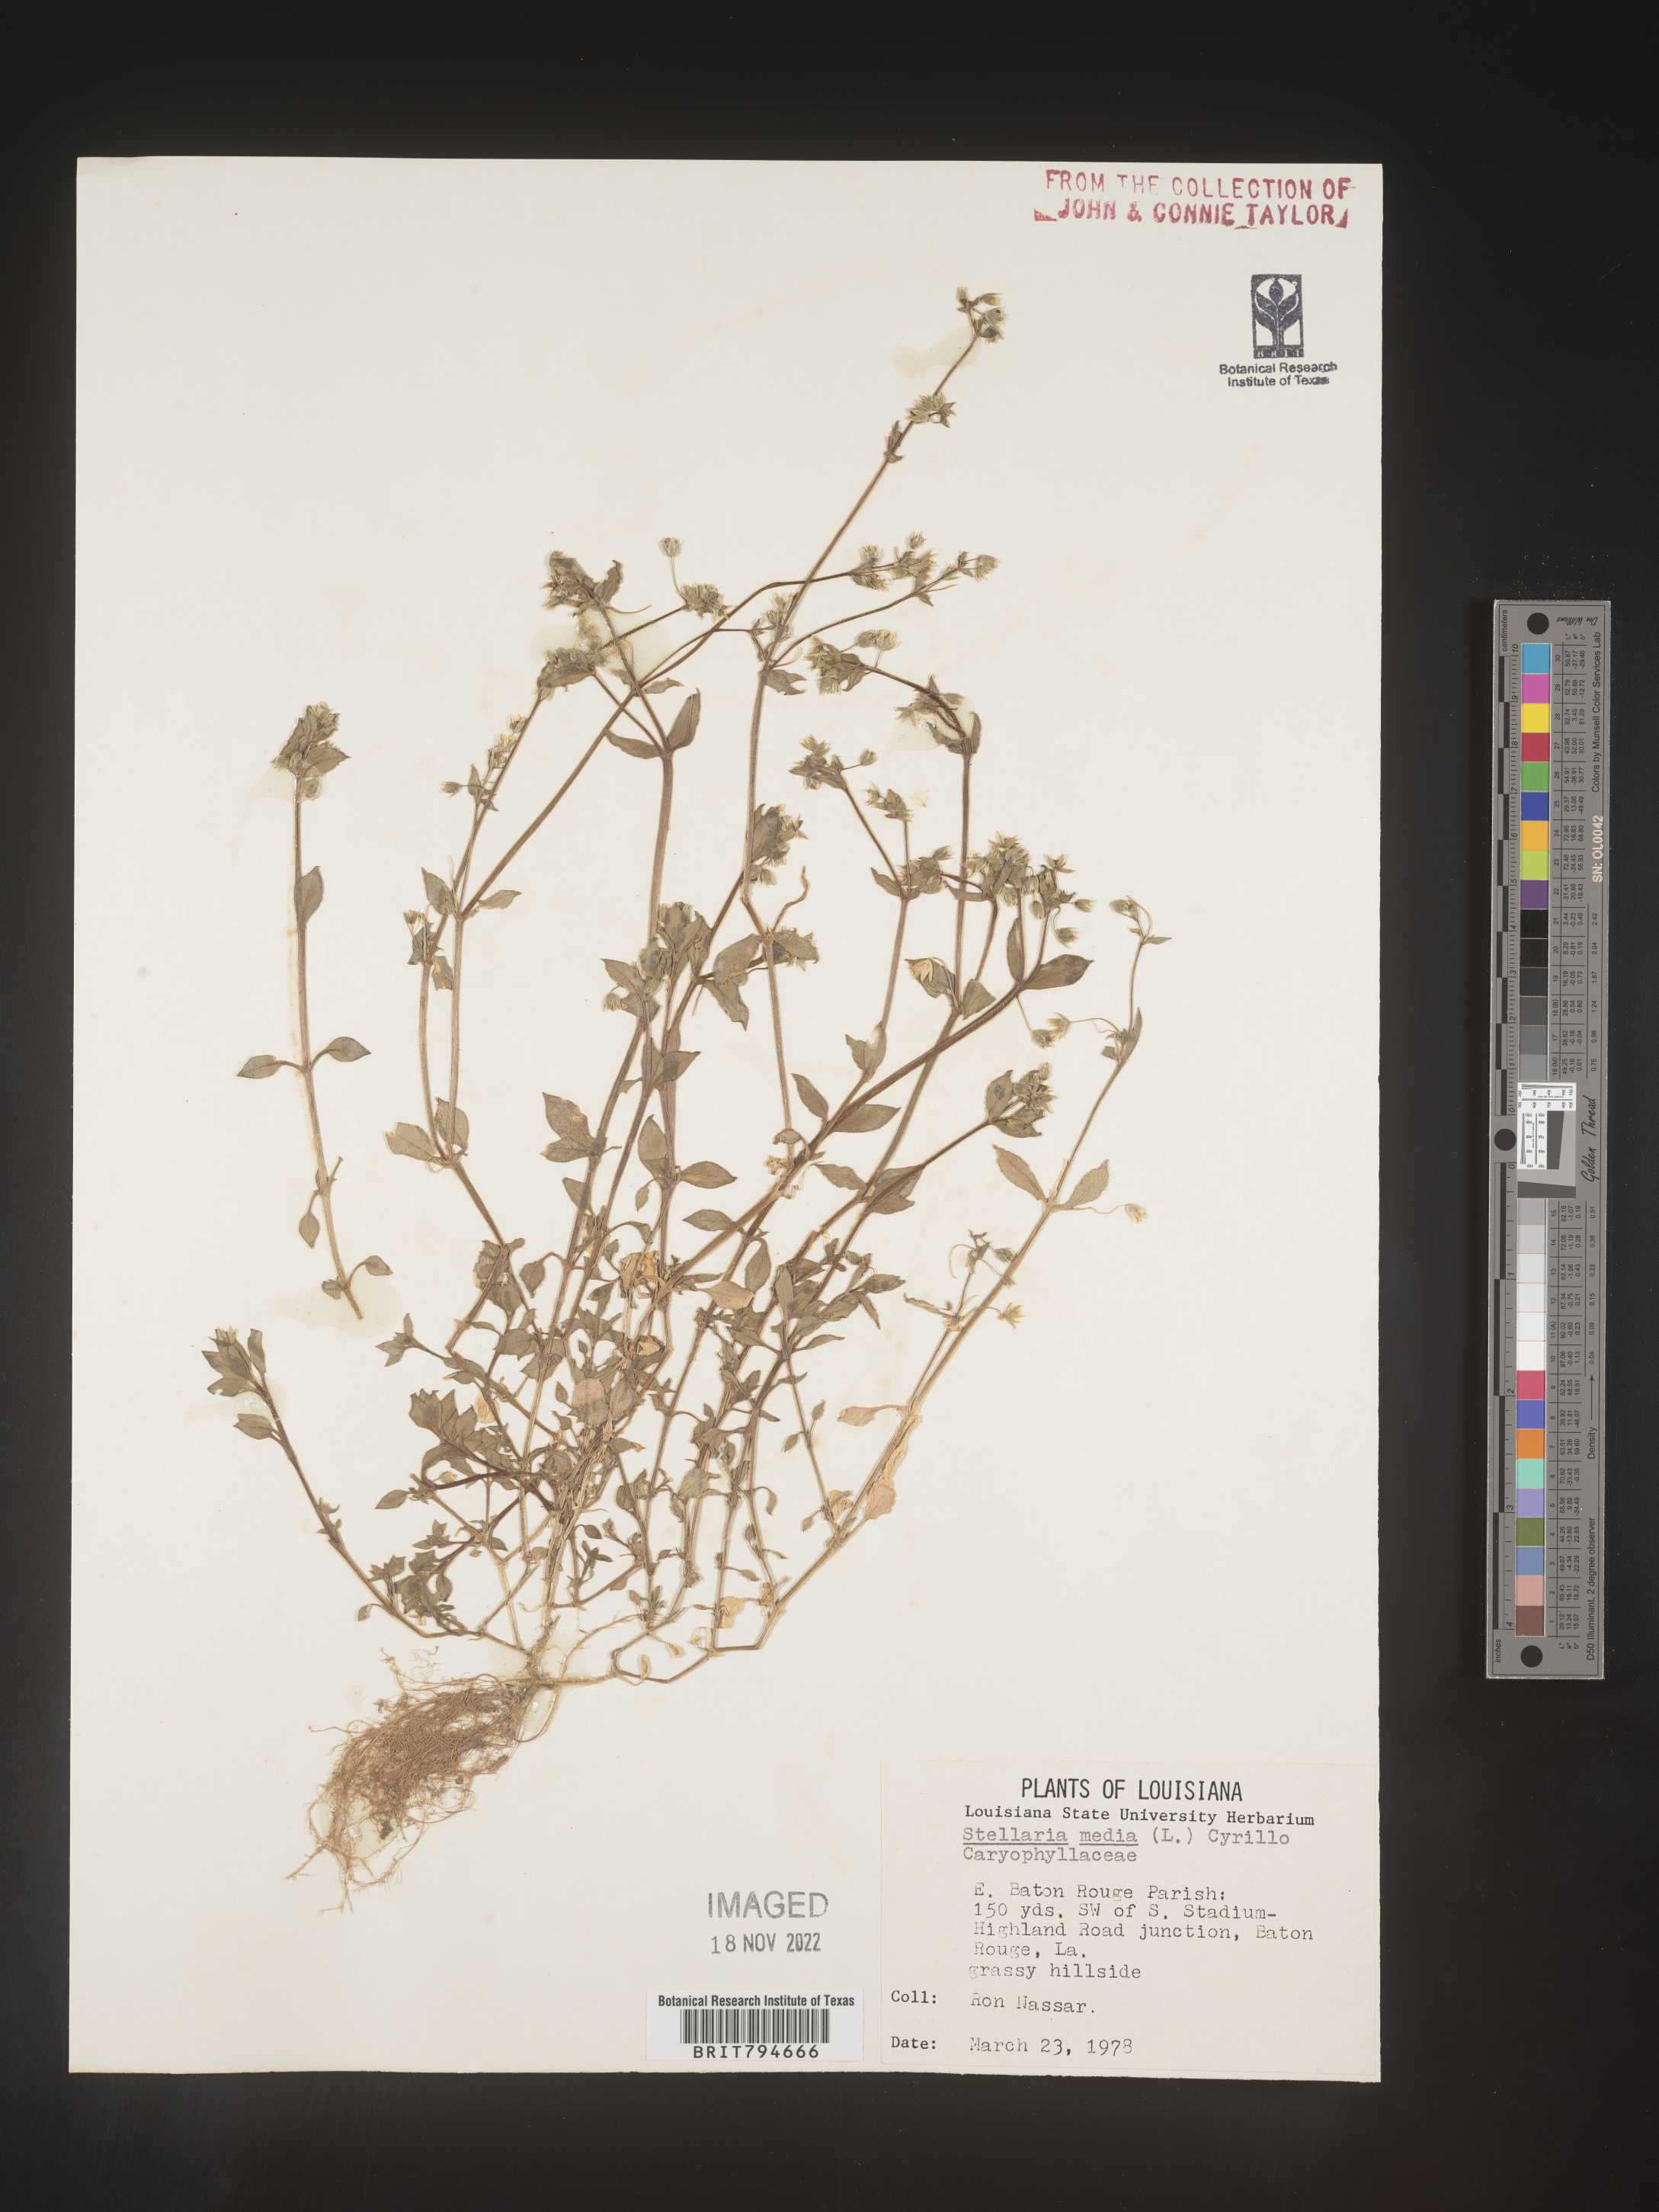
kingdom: Plantae
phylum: Tracheophyta
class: Magnoliopsida
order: Caryophyllales
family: Caryophyllaceae
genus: Stellaria
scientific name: Stellaria media
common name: Common chickweed
